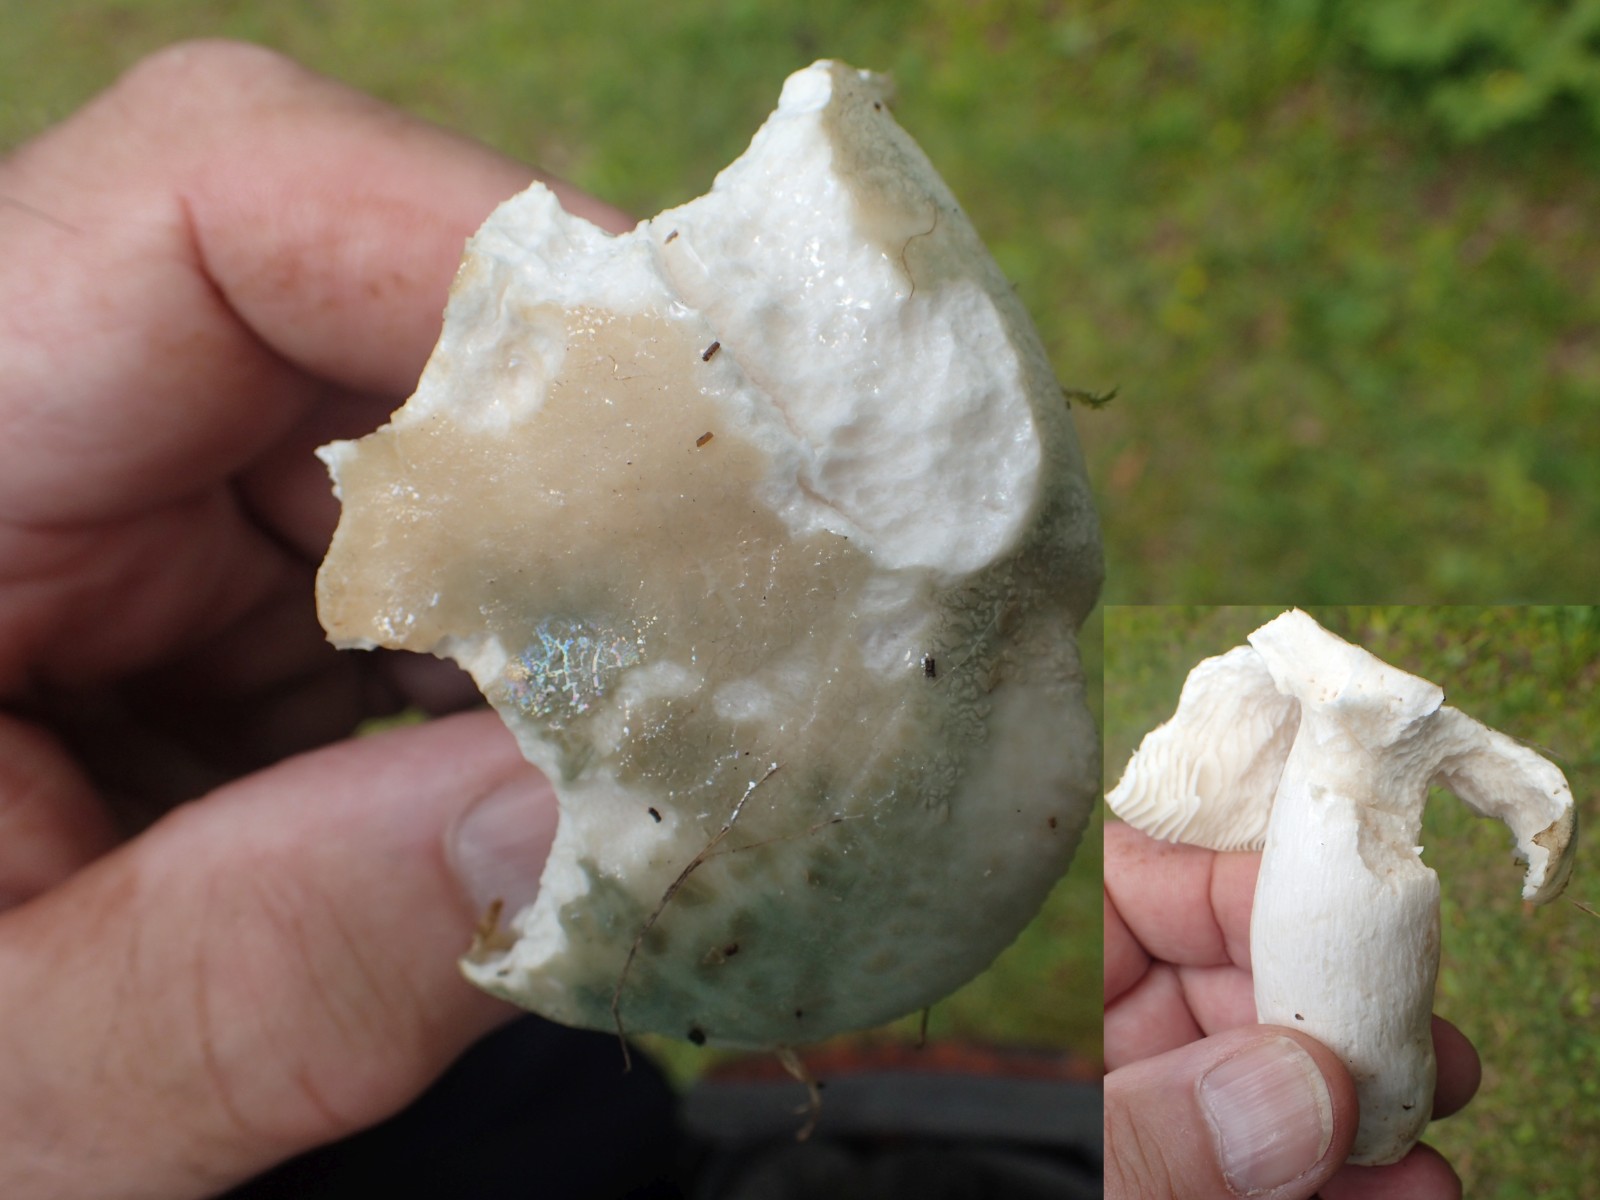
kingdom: Fungi
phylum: Basidiomycota
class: Agaricomycetes
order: Russulales
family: Russulaceae
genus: Russula
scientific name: Russula virescens
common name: spanskgrøn skørhat
